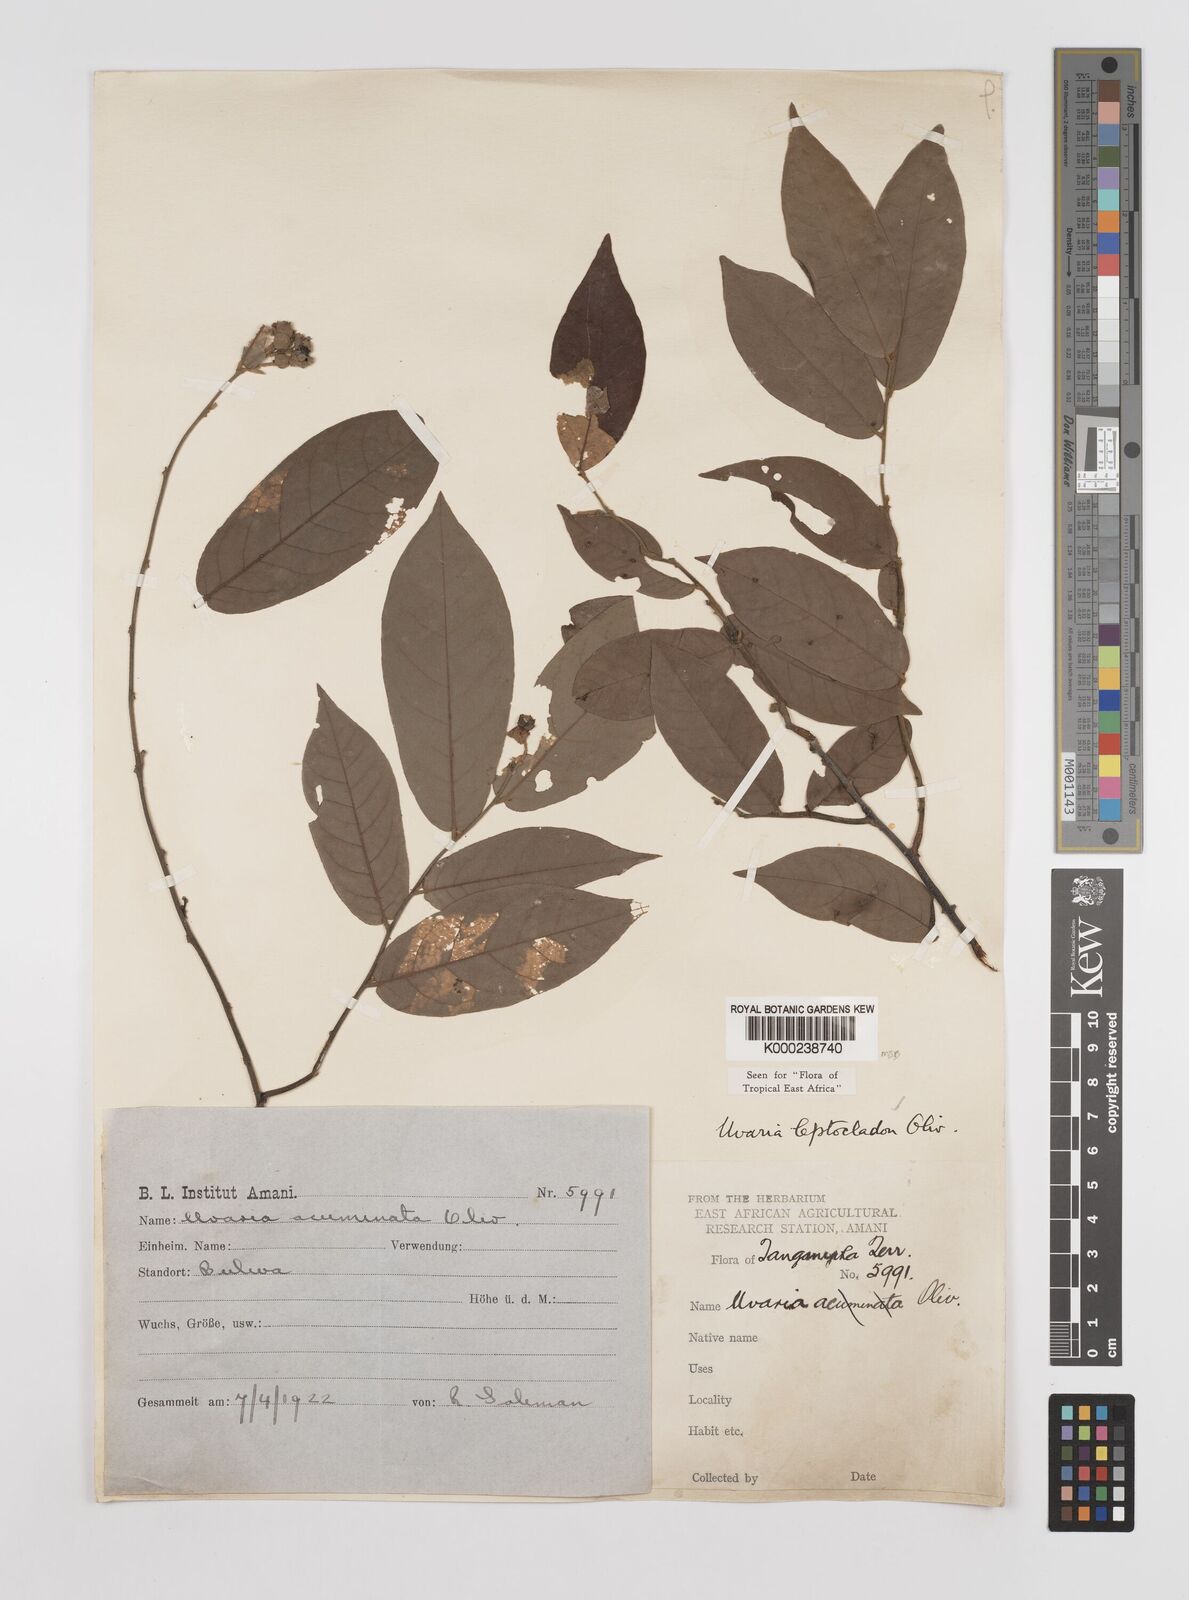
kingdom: Plantae
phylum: Tracheophyta
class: Magnoliopsida
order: Magnoliales
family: Annonaceae
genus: Uvaria
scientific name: Uvaria leptocladon
